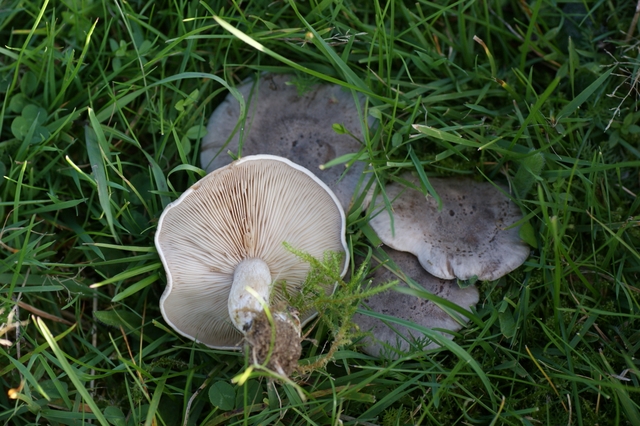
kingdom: Fungi
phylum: Basidiomycota
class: Agaricomycetes
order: Agaricales
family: Tricholomataceae
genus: Lepista
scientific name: Lepista panaeolus
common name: marmoreret hekseringshat
